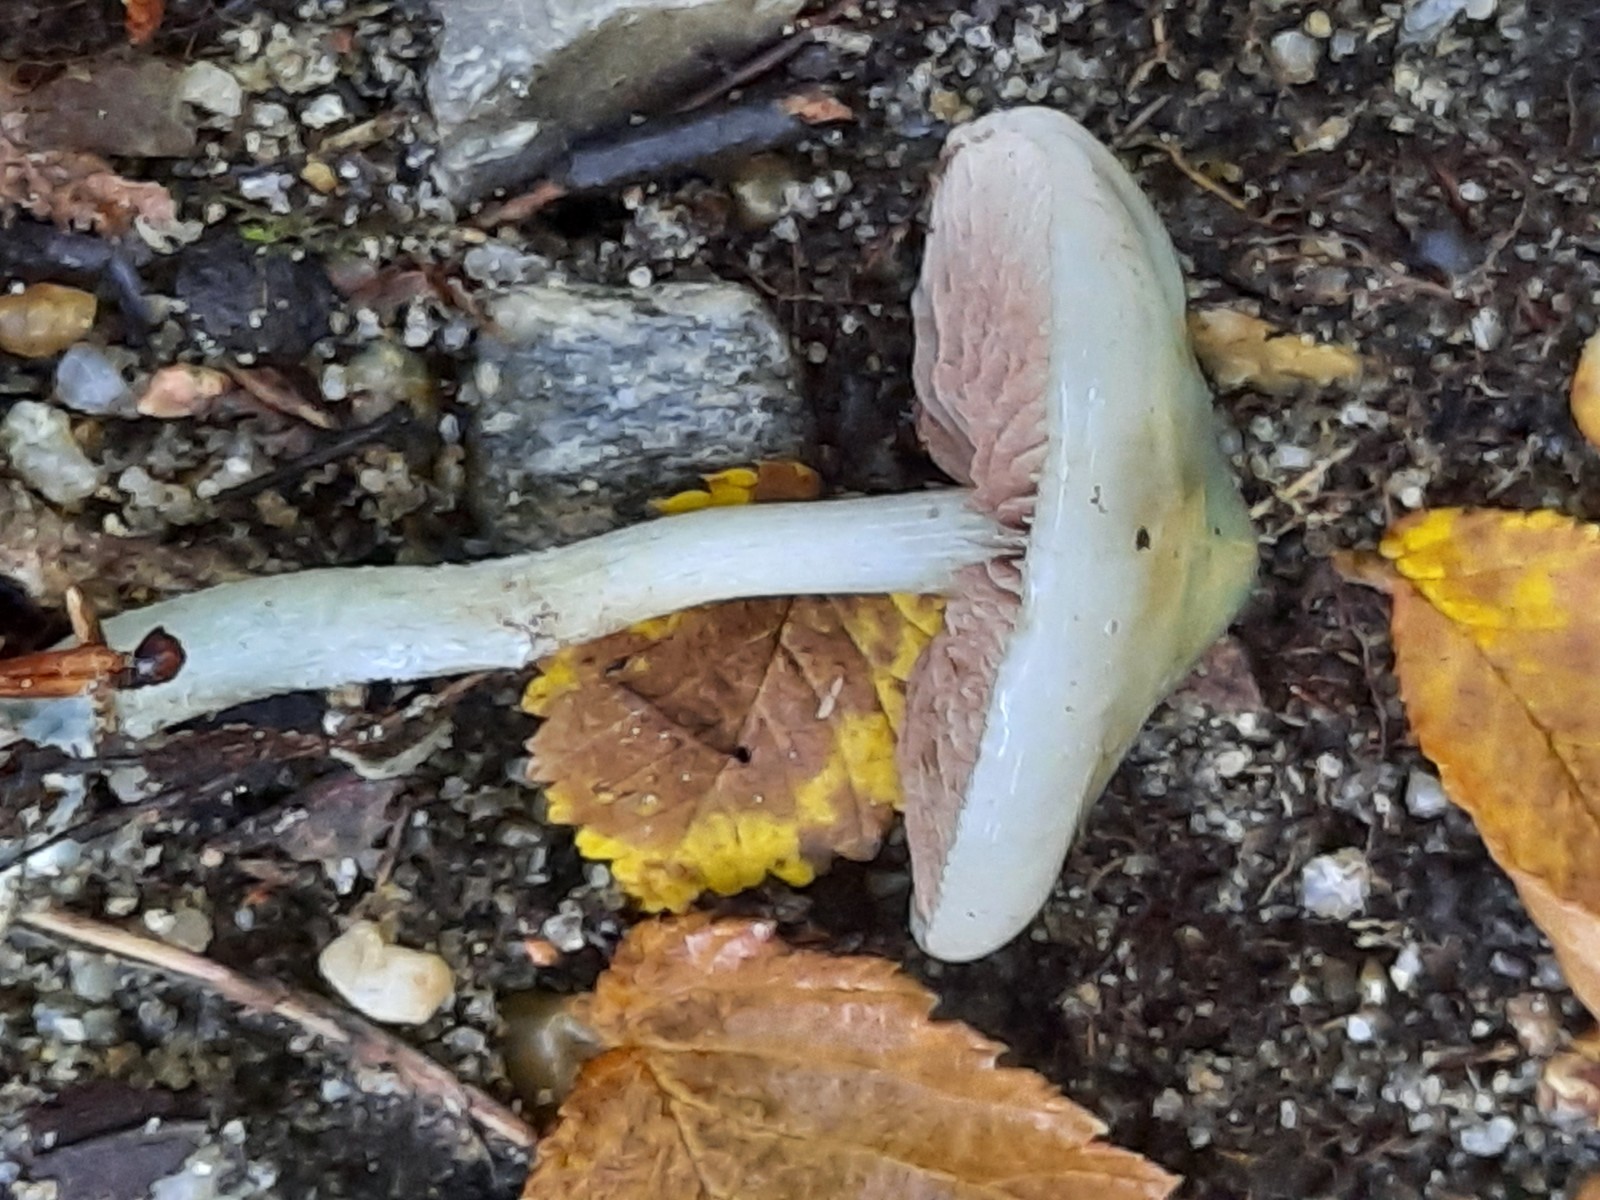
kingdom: Fungi
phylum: Basidiomycota
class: Agaricomycetes
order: Agaricales
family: Strophariaceae
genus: Stropharia
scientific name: Stropharia cyanea
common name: blågrøn bredblad
